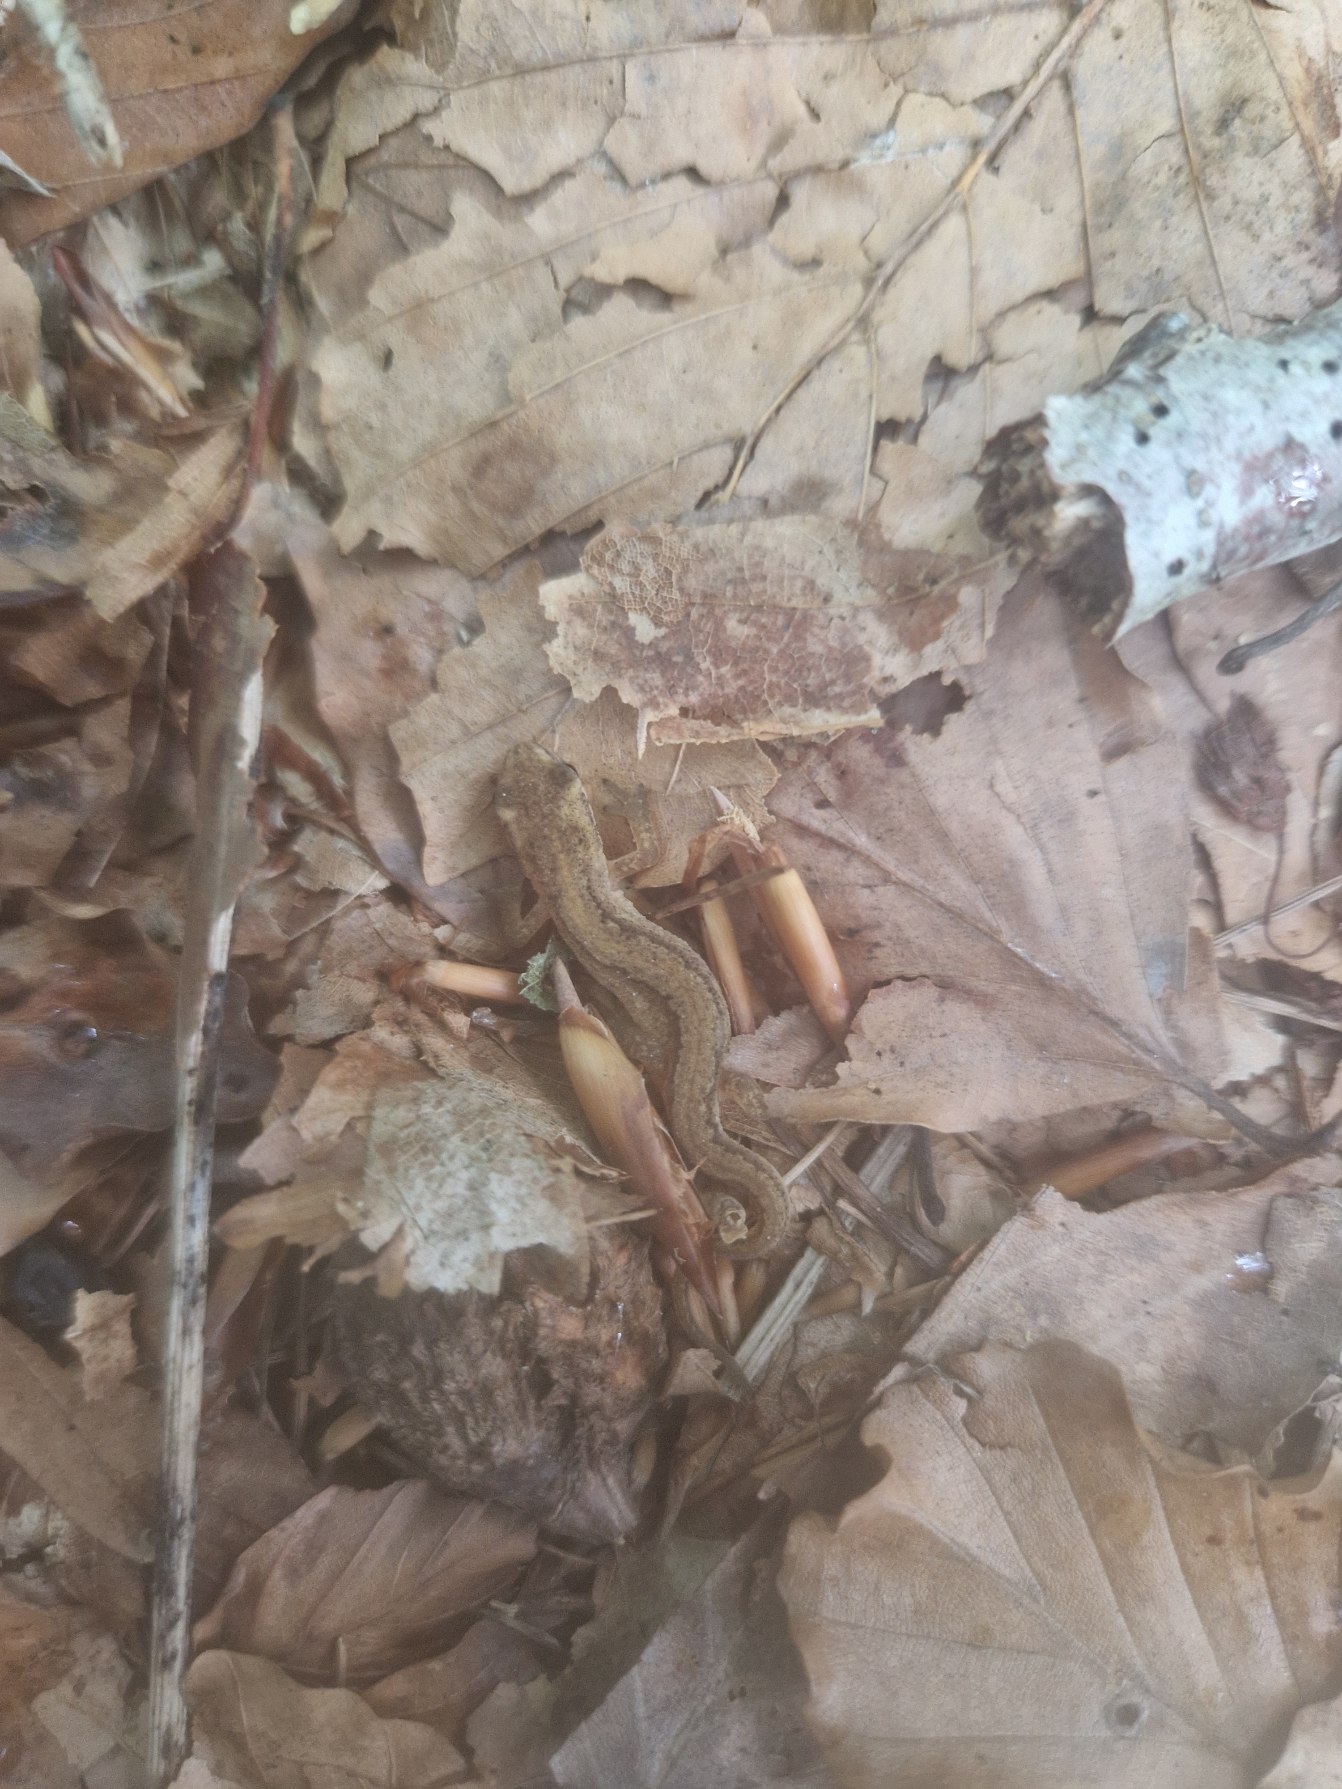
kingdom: Animalia
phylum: Chordata
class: Amphibia
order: Caudata
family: Salamandridae
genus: Lissotriton
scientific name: Lissotriton vulgaris
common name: Lille vandsalamander
